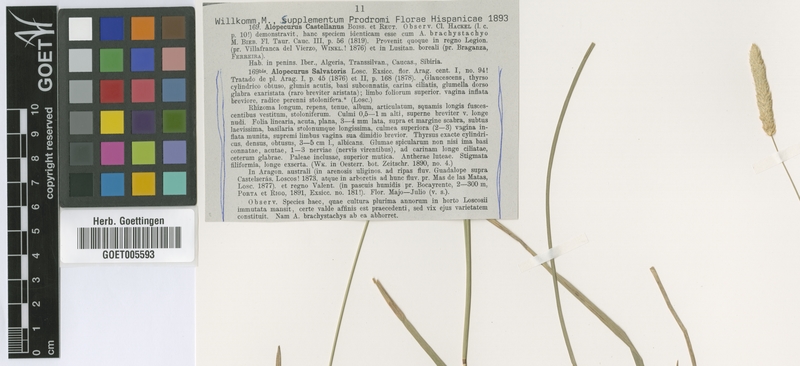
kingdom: Plantae
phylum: Tracheophyta
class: Liliopsida
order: Poales
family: Poaceae
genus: Alopecurus
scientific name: Alopecurus arundinaceus
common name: Creeping meadow foxtail
